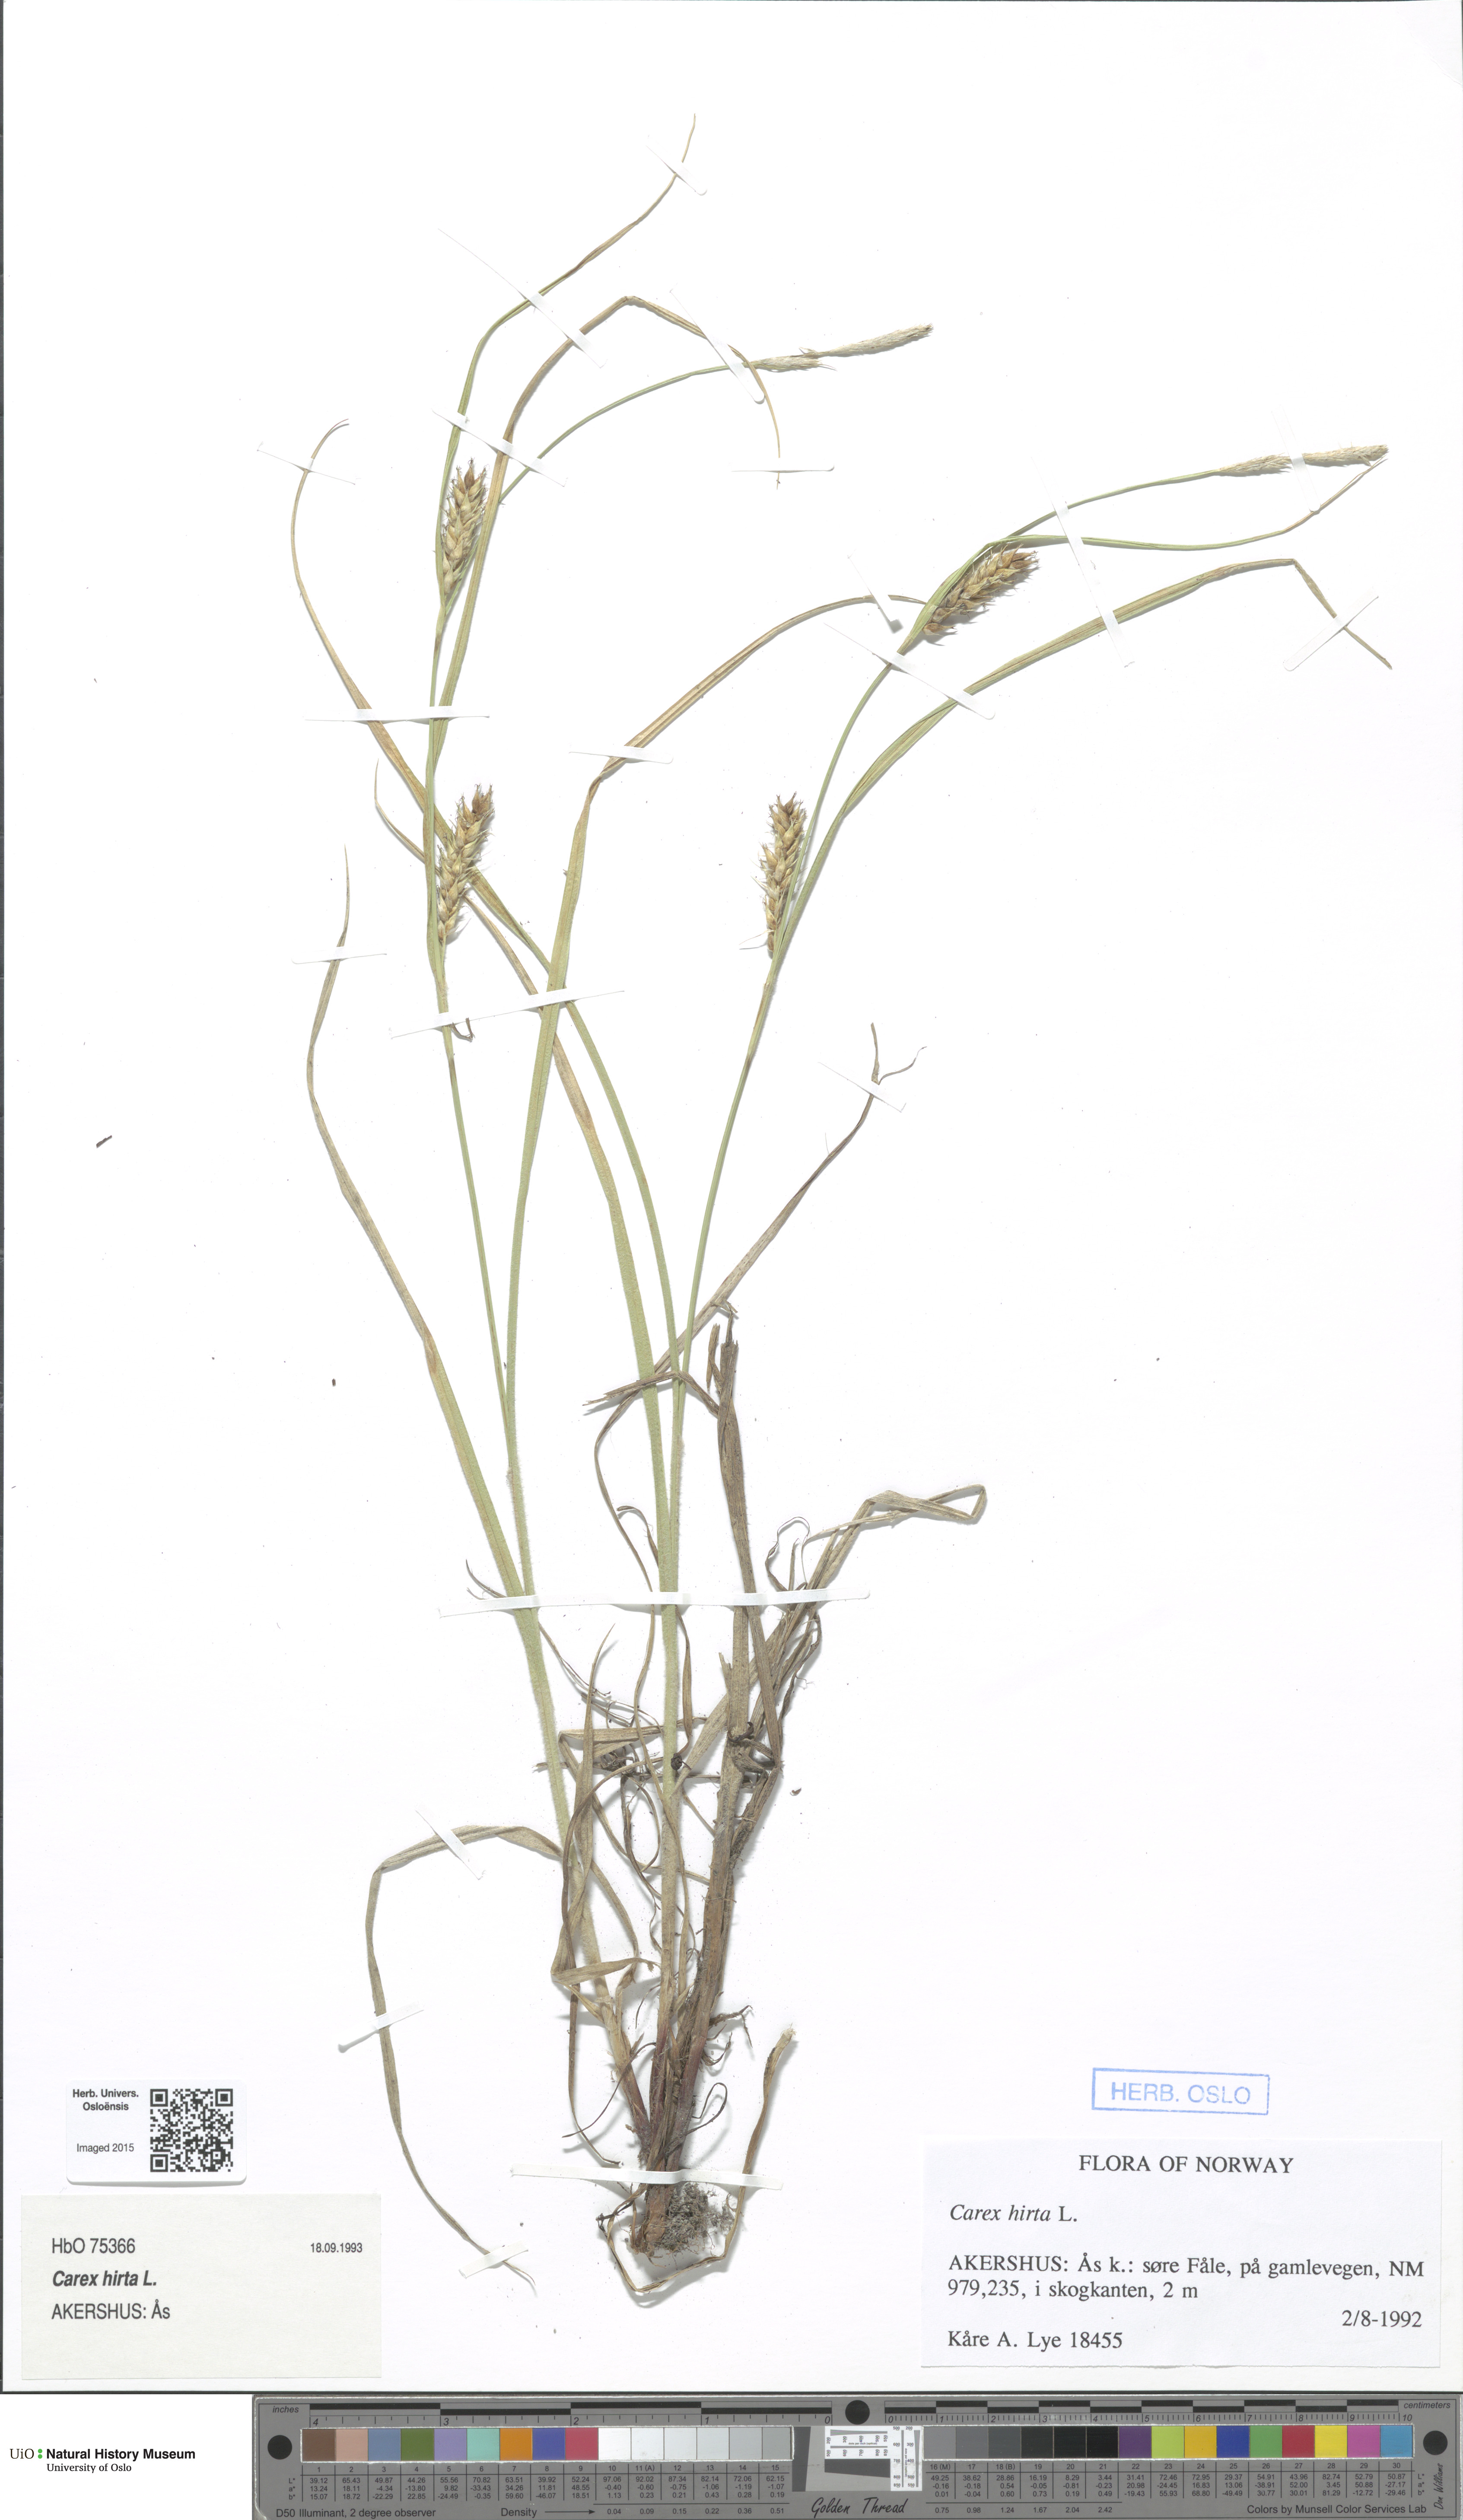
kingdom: Plantae
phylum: Tracheophyta
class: Liliopsida
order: Poales
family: Cyperaceae
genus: Carex
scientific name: Carex hirta
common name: Hairy sedge
